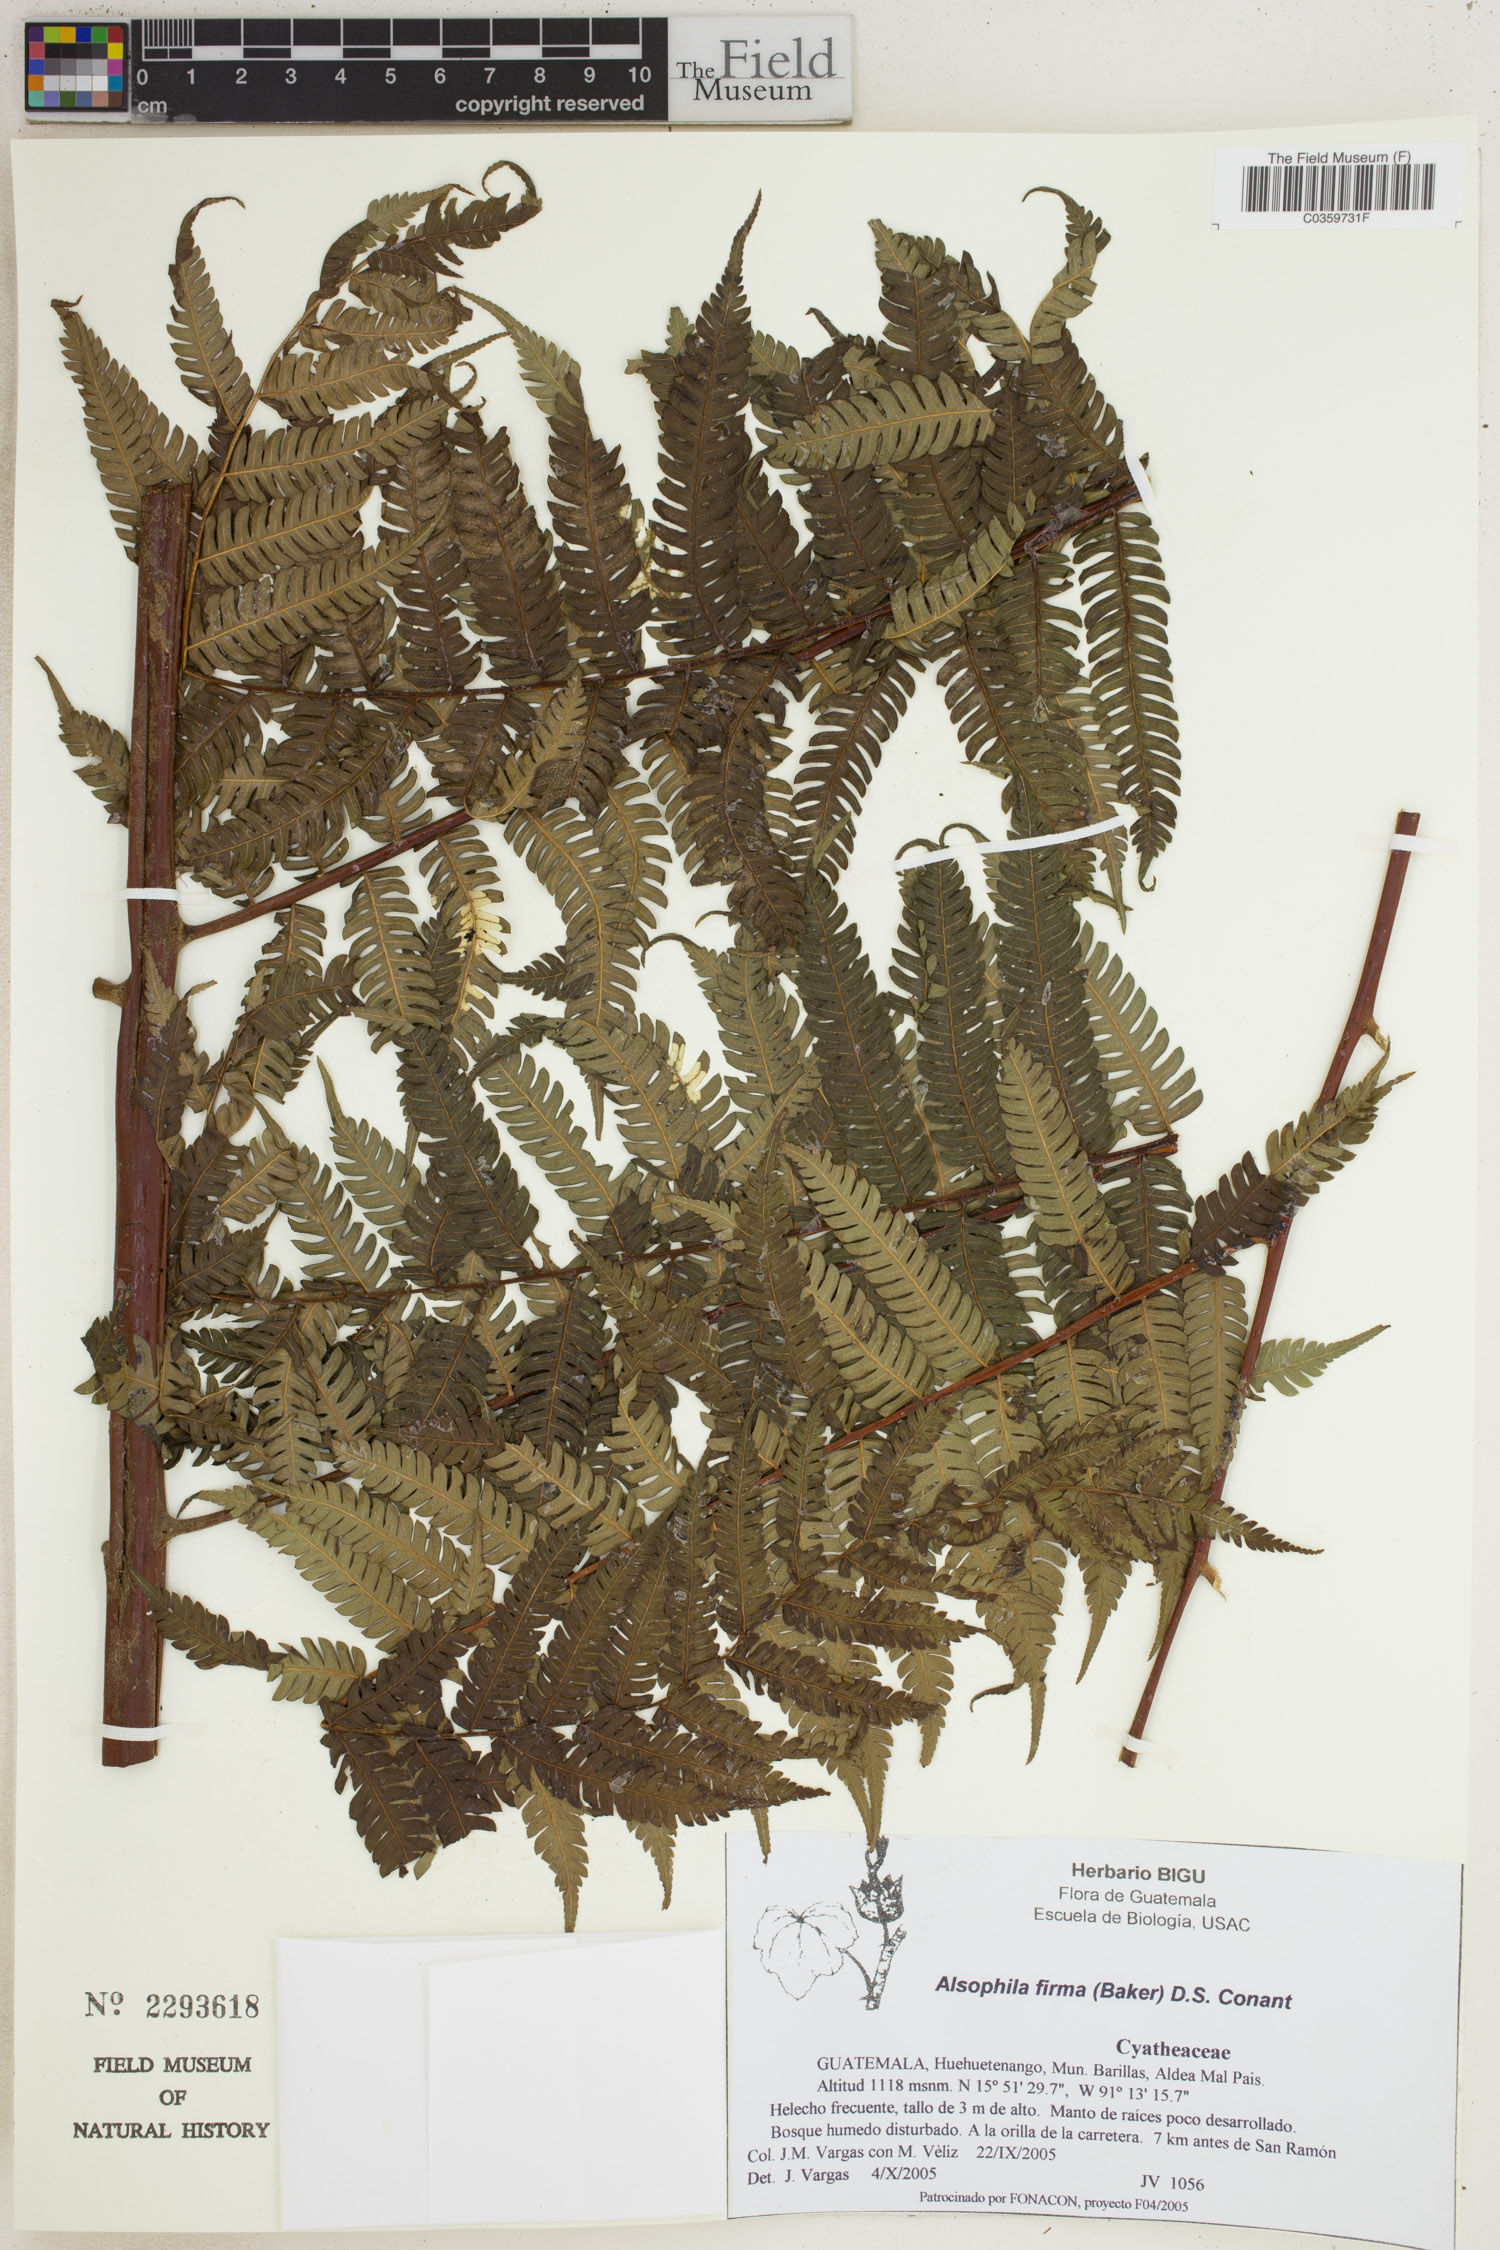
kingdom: Plantae
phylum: Tracheophyta
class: Polypodiopsida
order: Cyatheales
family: Cyatheaceae
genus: Alsophila
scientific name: Alsophila firma
